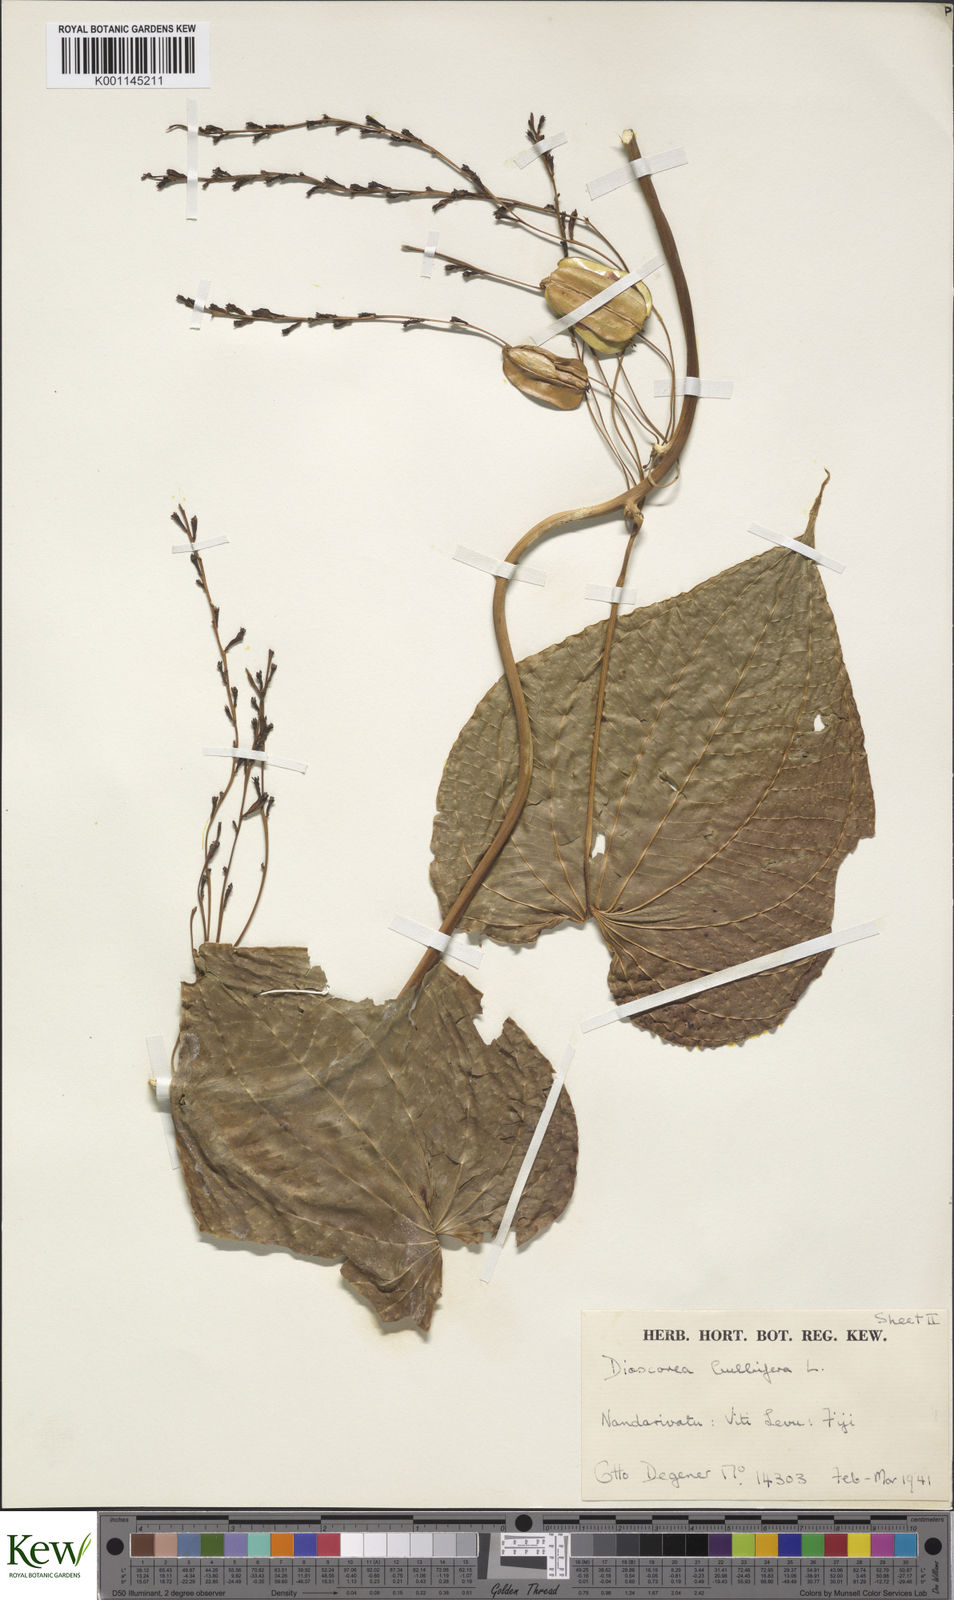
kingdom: Plantae
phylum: Tracheophyta
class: Liliopsida
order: Dioscoreales
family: Dioscoreaceae
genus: Dioscorea
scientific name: Dioscorea bulbifera
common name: Air yam
